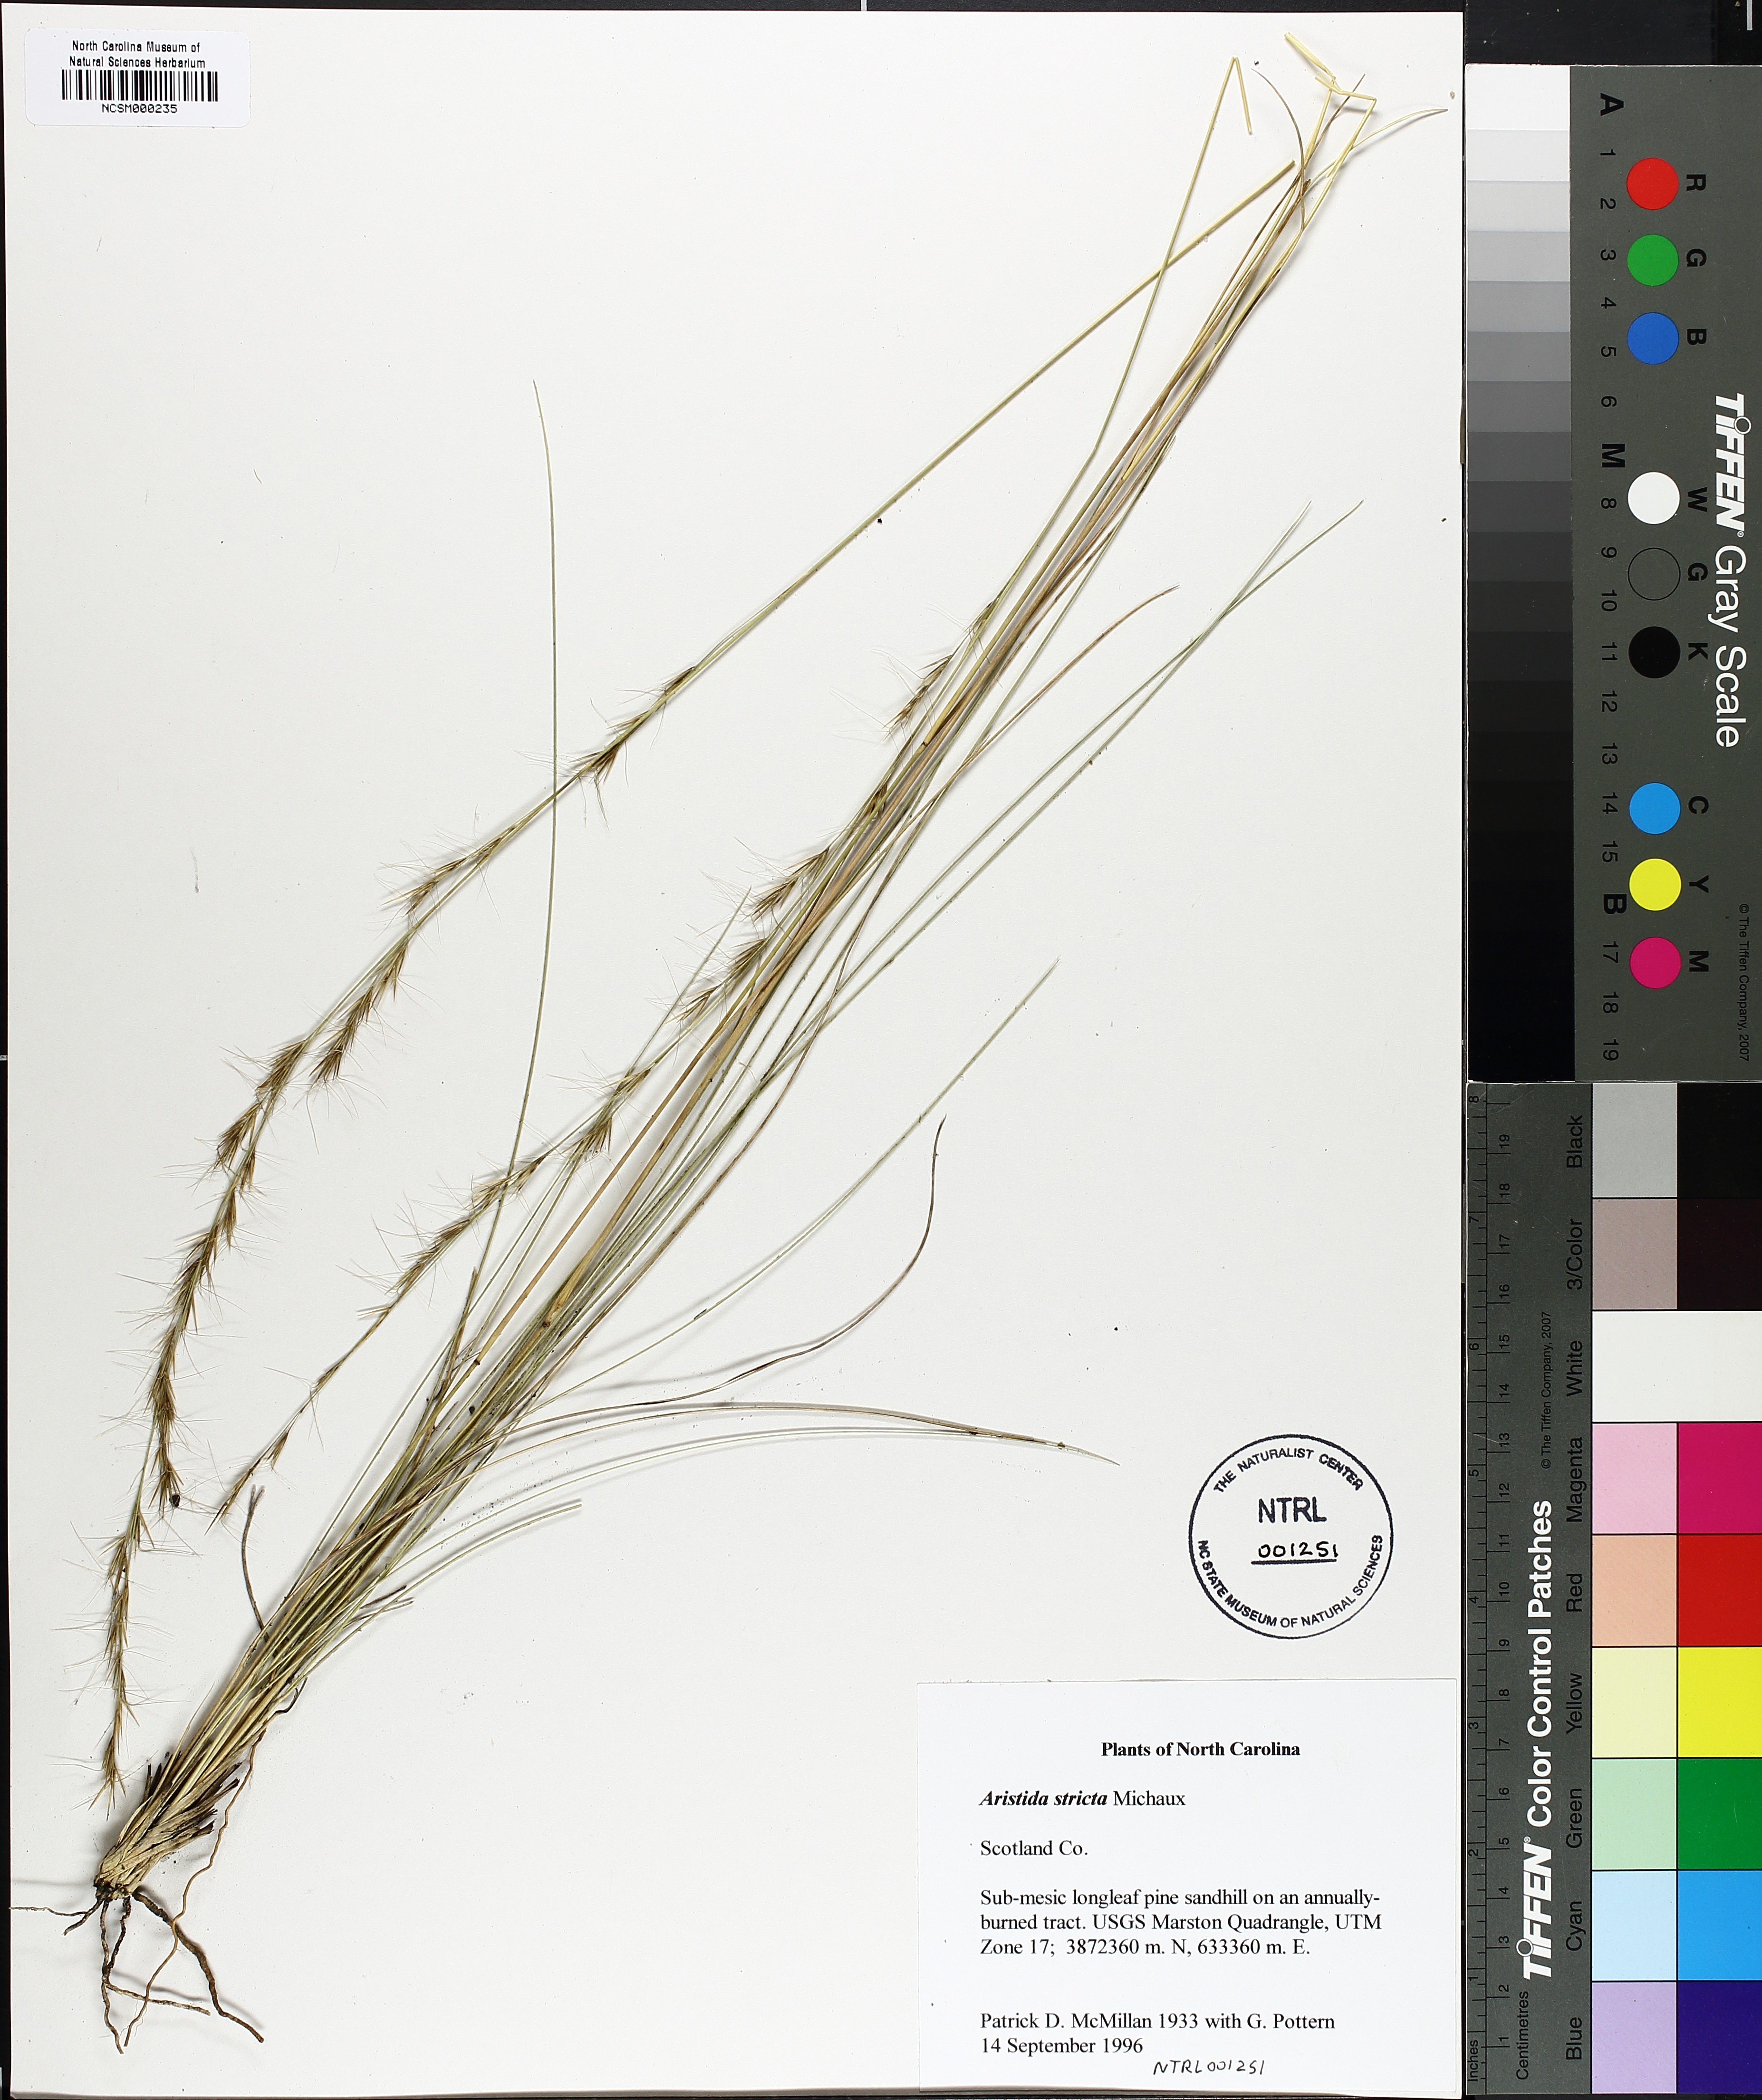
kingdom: Plantae
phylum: Tracheophyta
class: Liliopsida
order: Poales
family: Poaceae
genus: Aristida
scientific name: Aristida stricta
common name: Pineland three-awn
